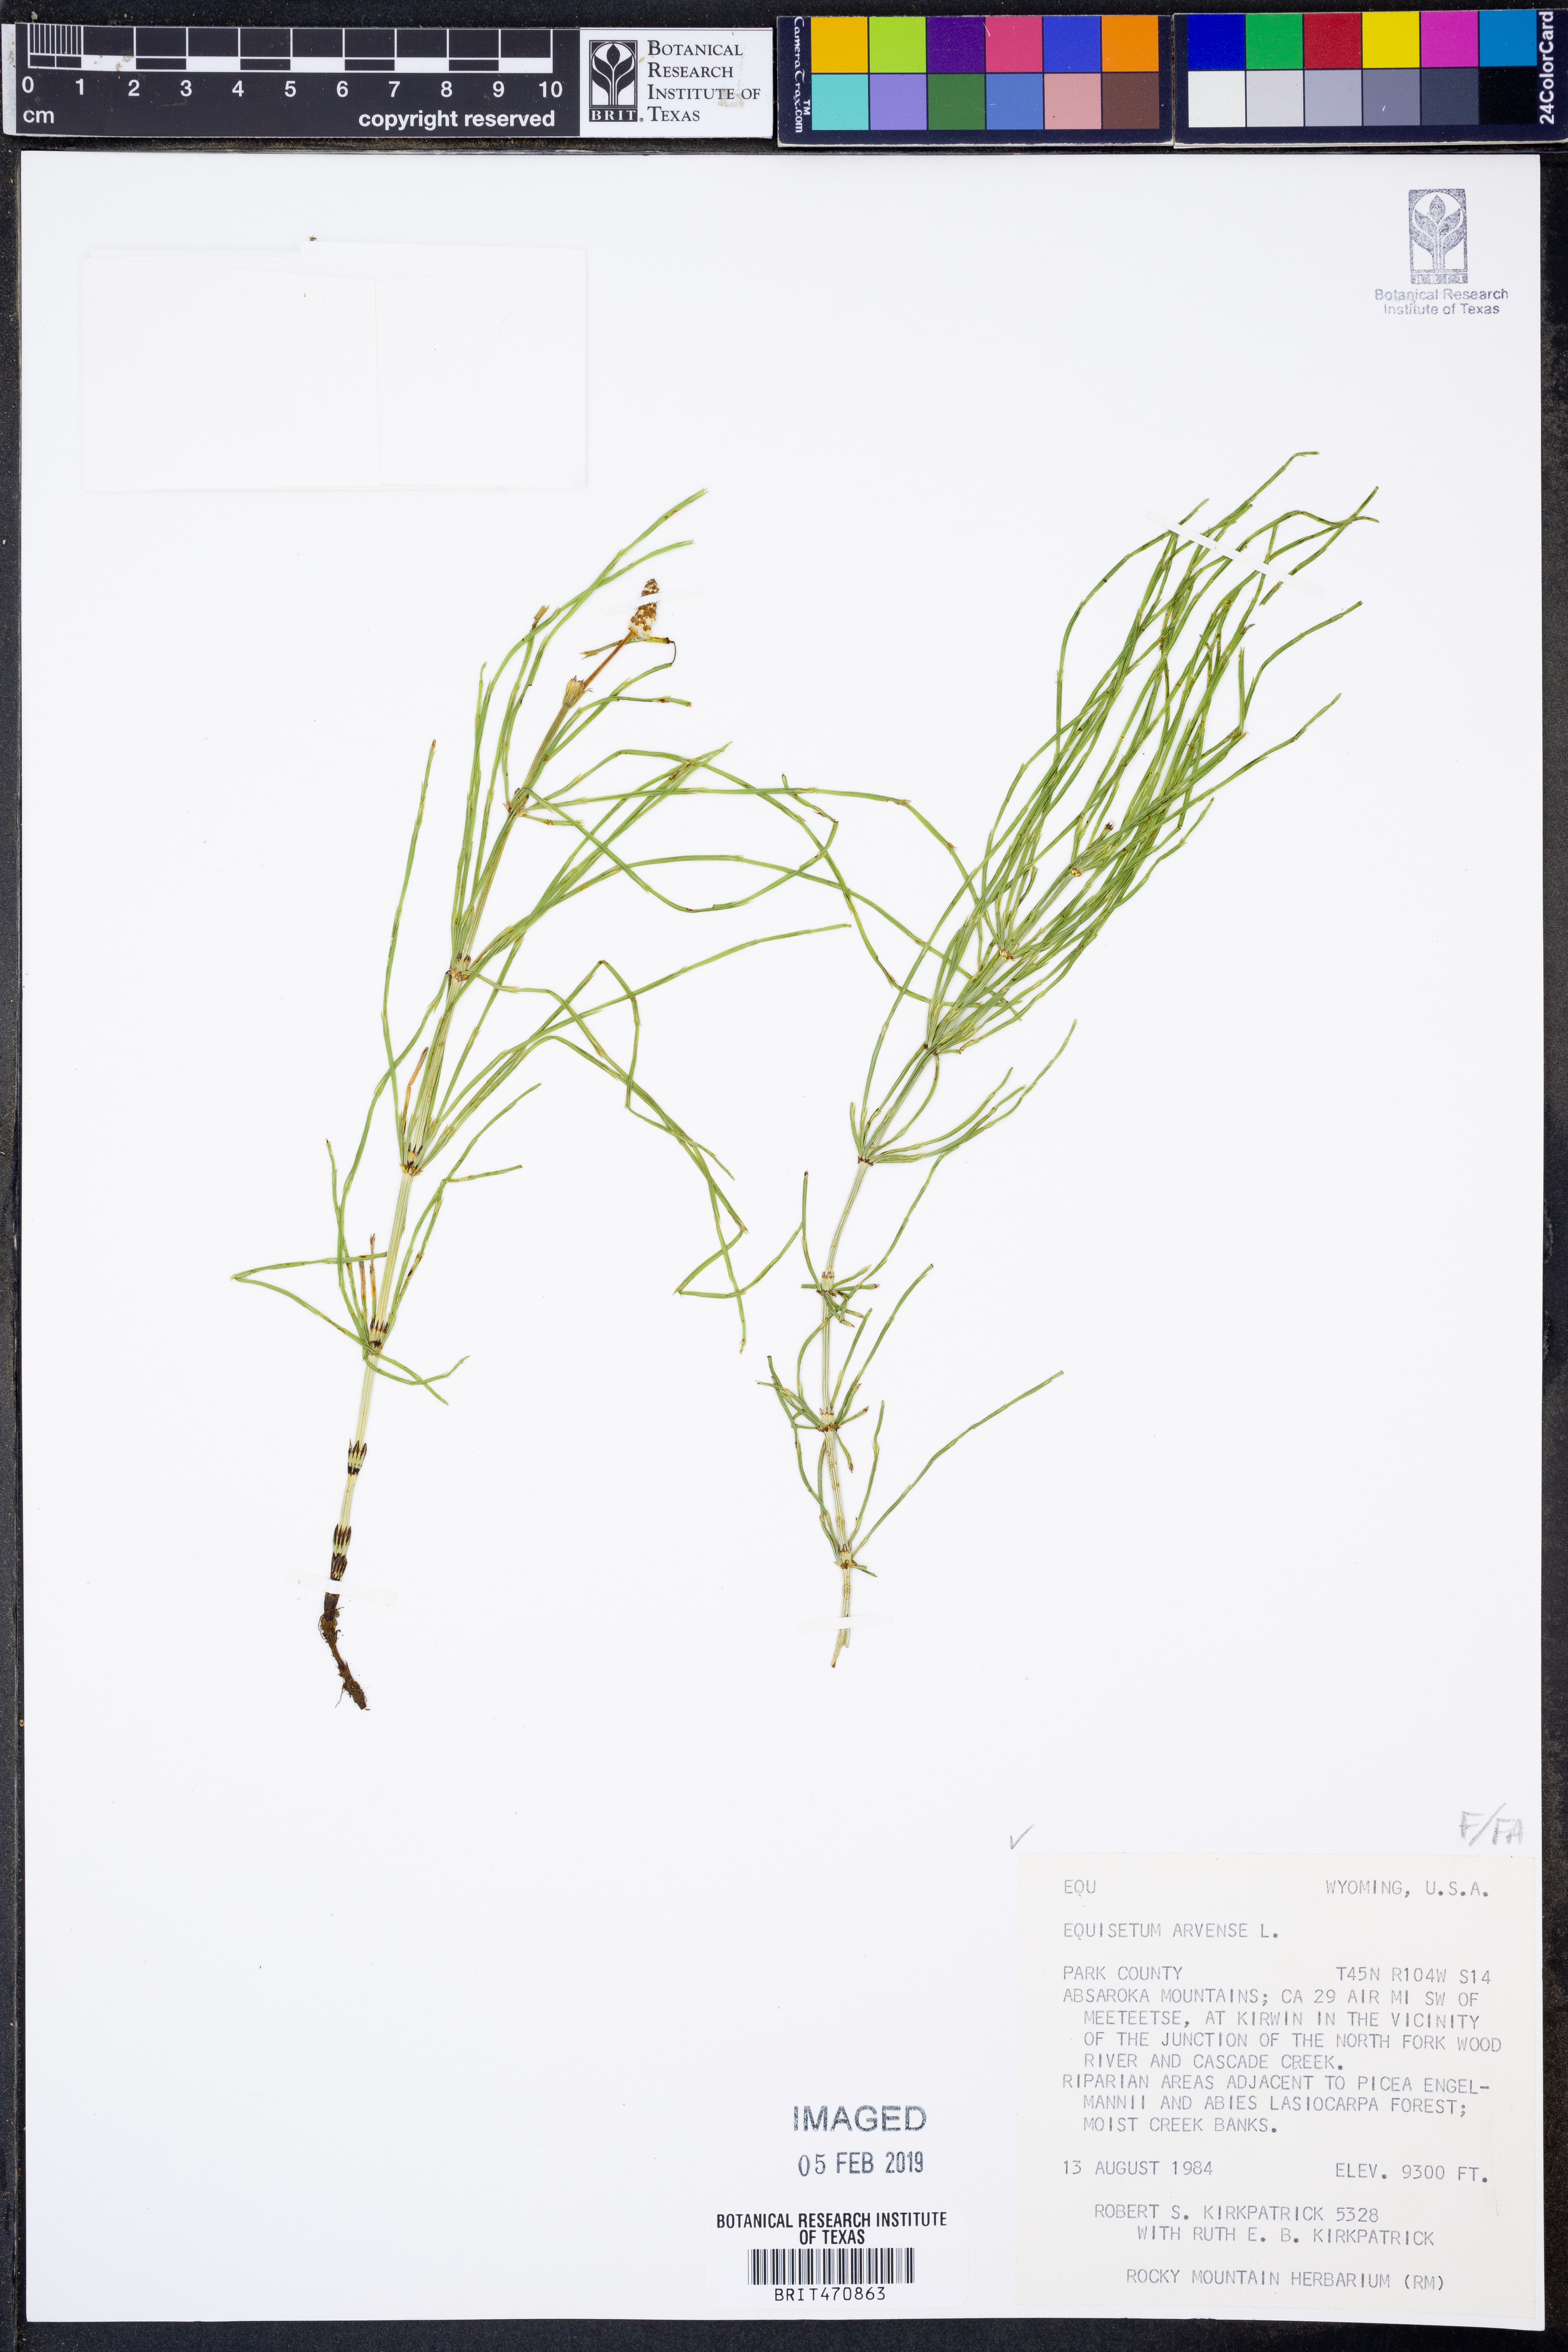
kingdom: Plantae
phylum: Tracheophyta
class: Polypodiopsida
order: Equisetales
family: Equisetaceae
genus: Equisetum
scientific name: Equisetum arvense
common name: Field horsetail
